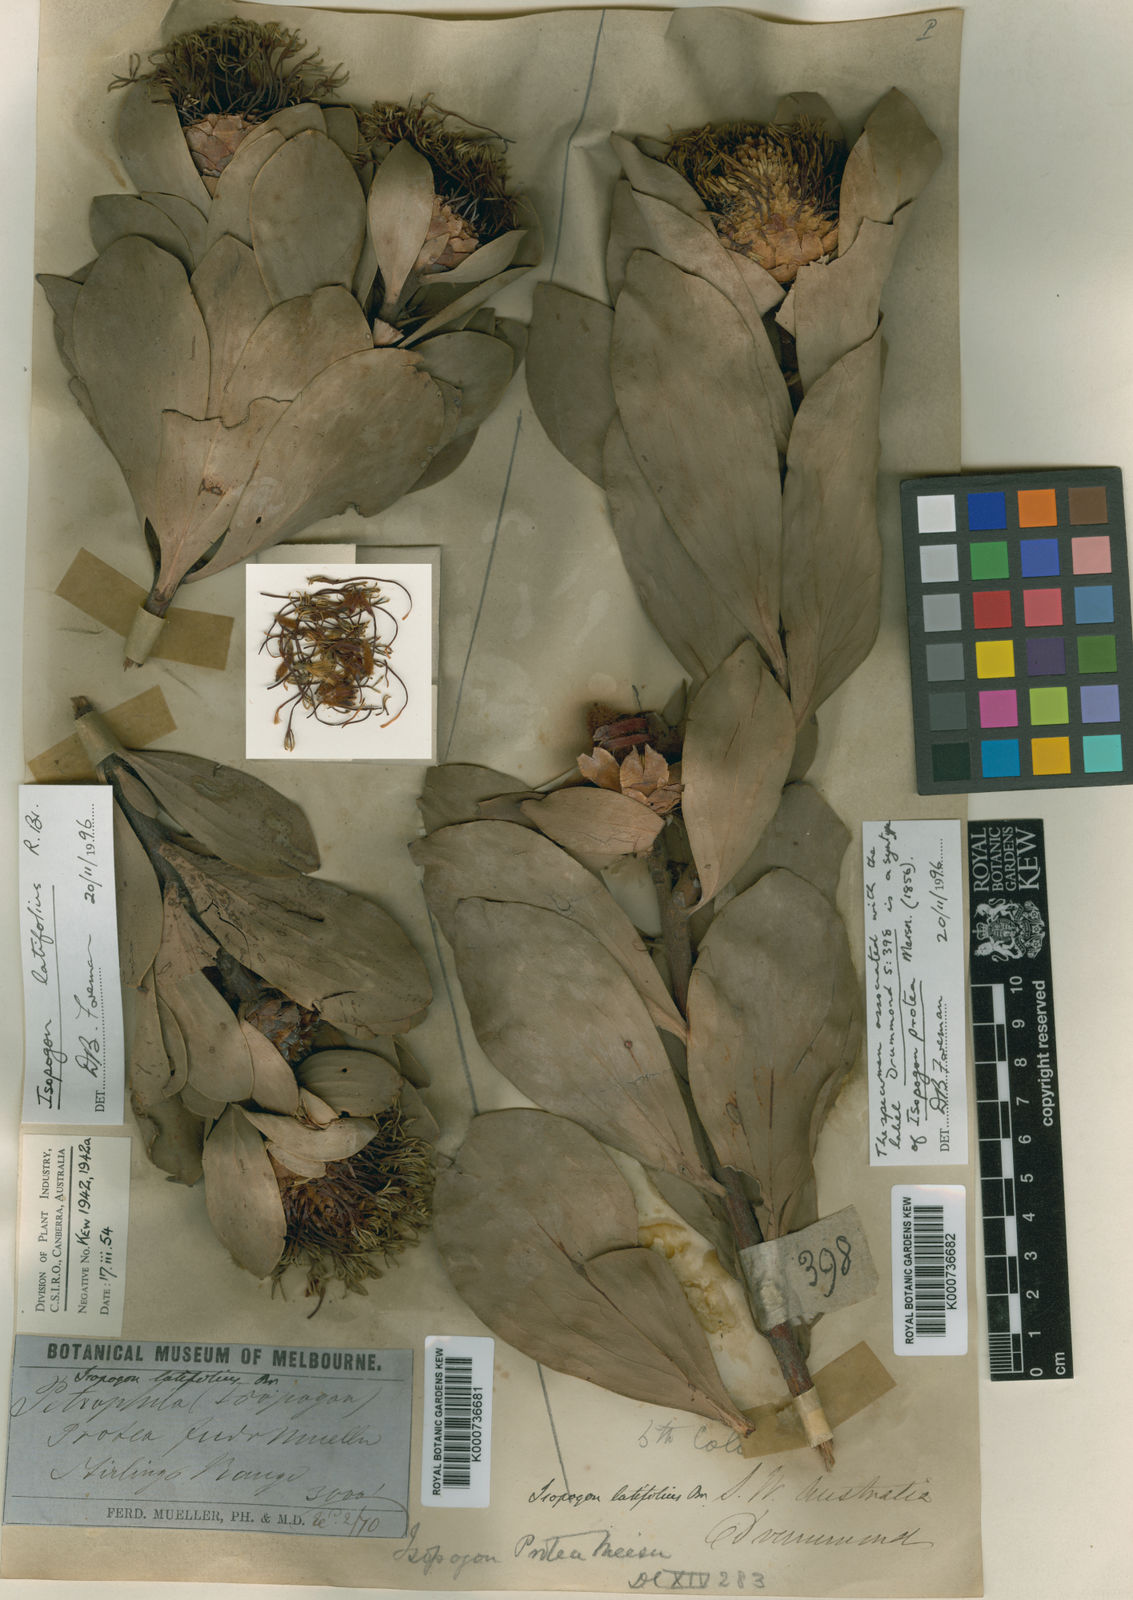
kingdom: Plantae
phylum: Tracheophyta
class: Magnoliopsida
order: Proteales
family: Proteaceae
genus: Isopogon
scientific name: Isopogon latifolius
